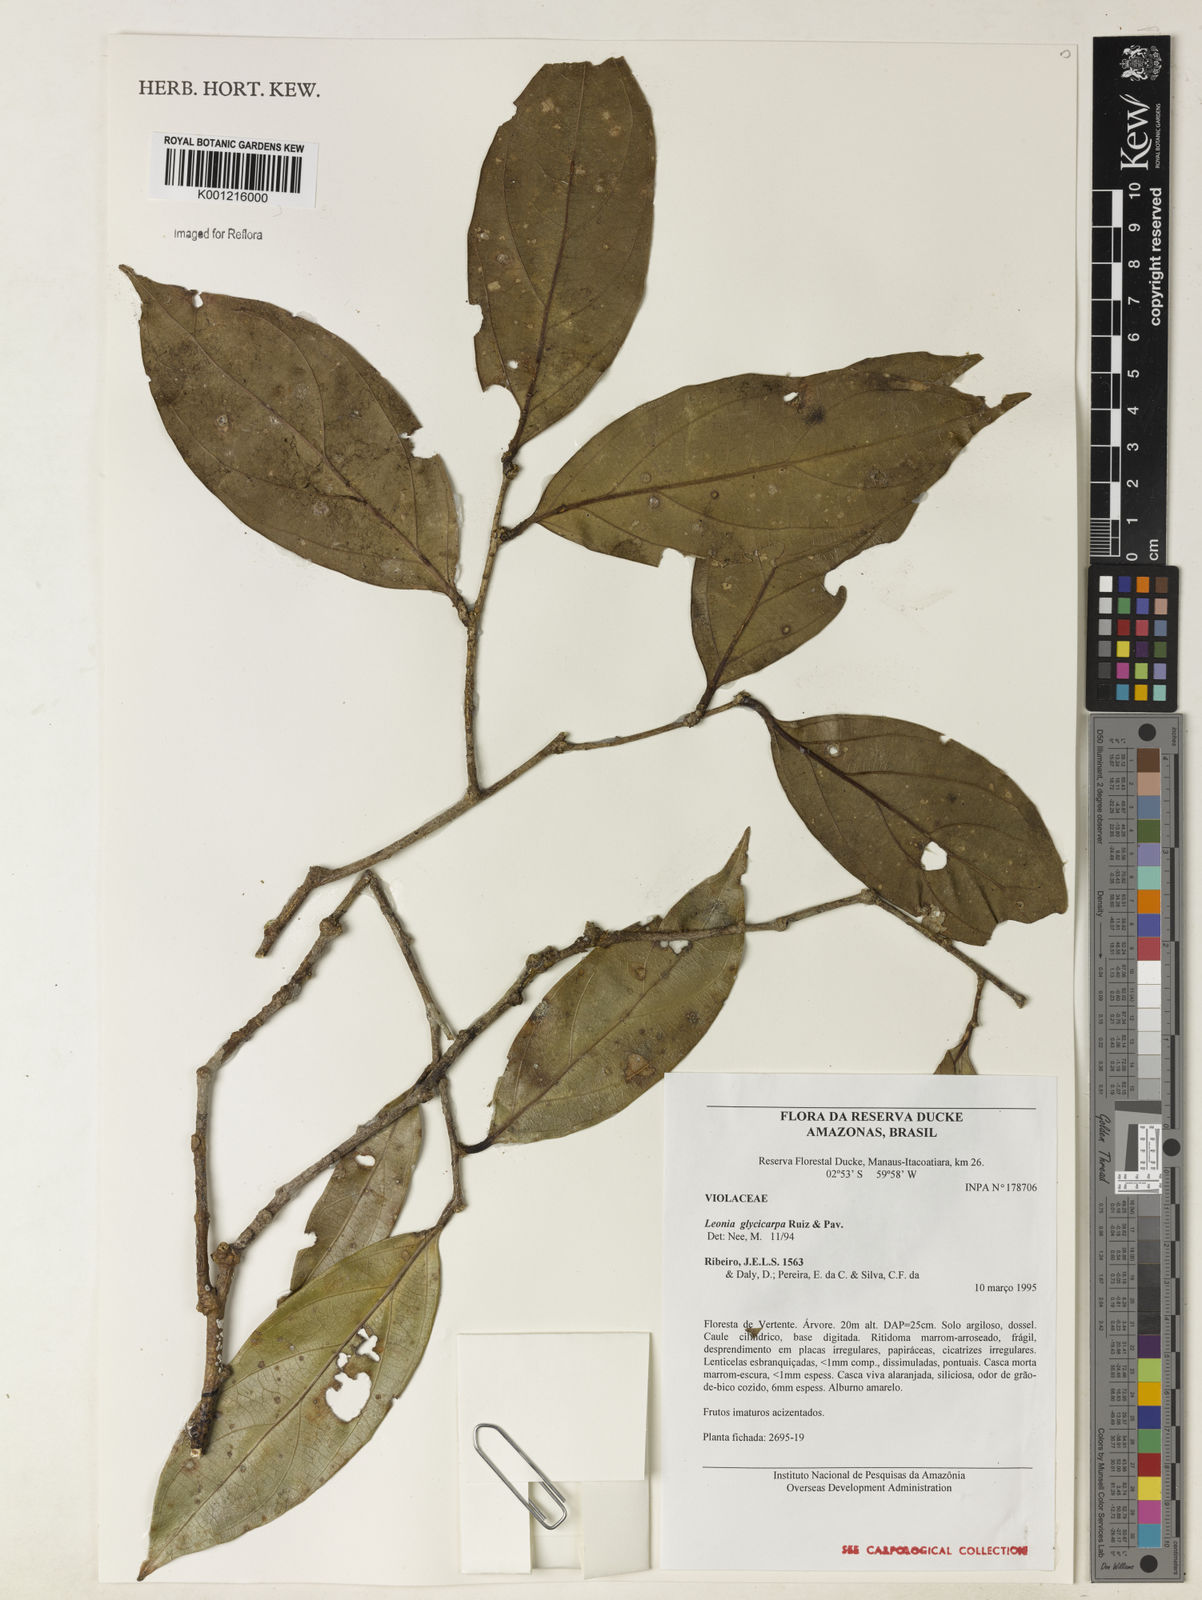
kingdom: Plantae
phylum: Tracheophyta
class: Magnoliopsida
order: Malpighiales
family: Violaceae
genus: Leonia
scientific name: Leonia glycycarpa
